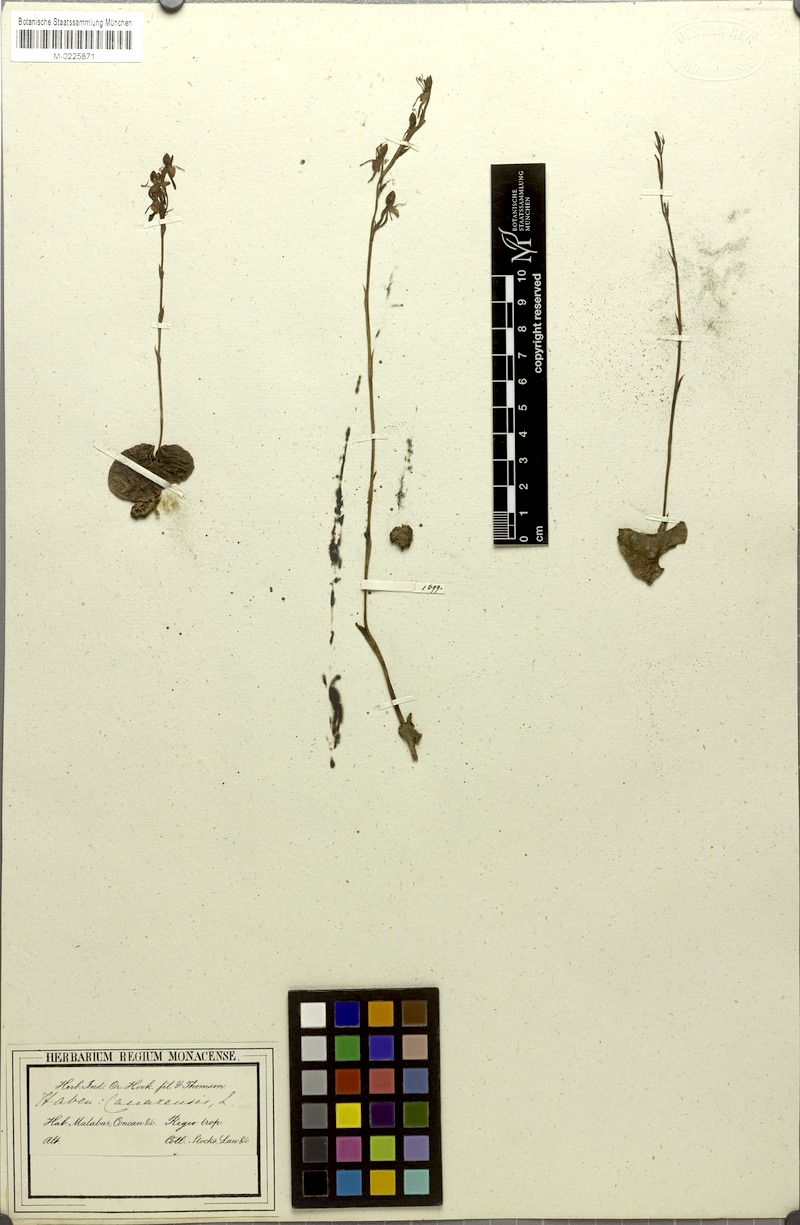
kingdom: Plantae
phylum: Tracheophyta
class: Liliopsida
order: Asparagales
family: Orchidaceae
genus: Habenaria
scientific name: Habenaria brachyphylla
